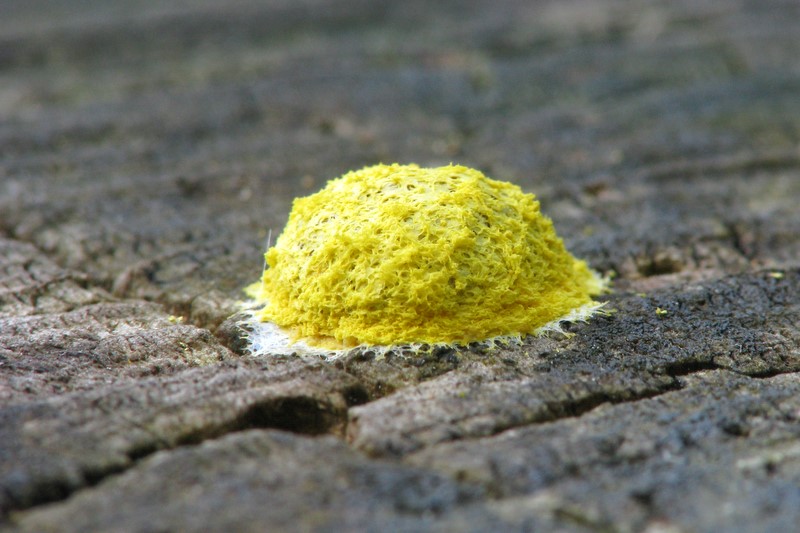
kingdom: Protozoa
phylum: Mycetozoa
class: Myxomycetes
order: Physarales
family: Physaraceae
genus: Fuligo
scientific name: Fuligo septica
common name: gul troldsmør
